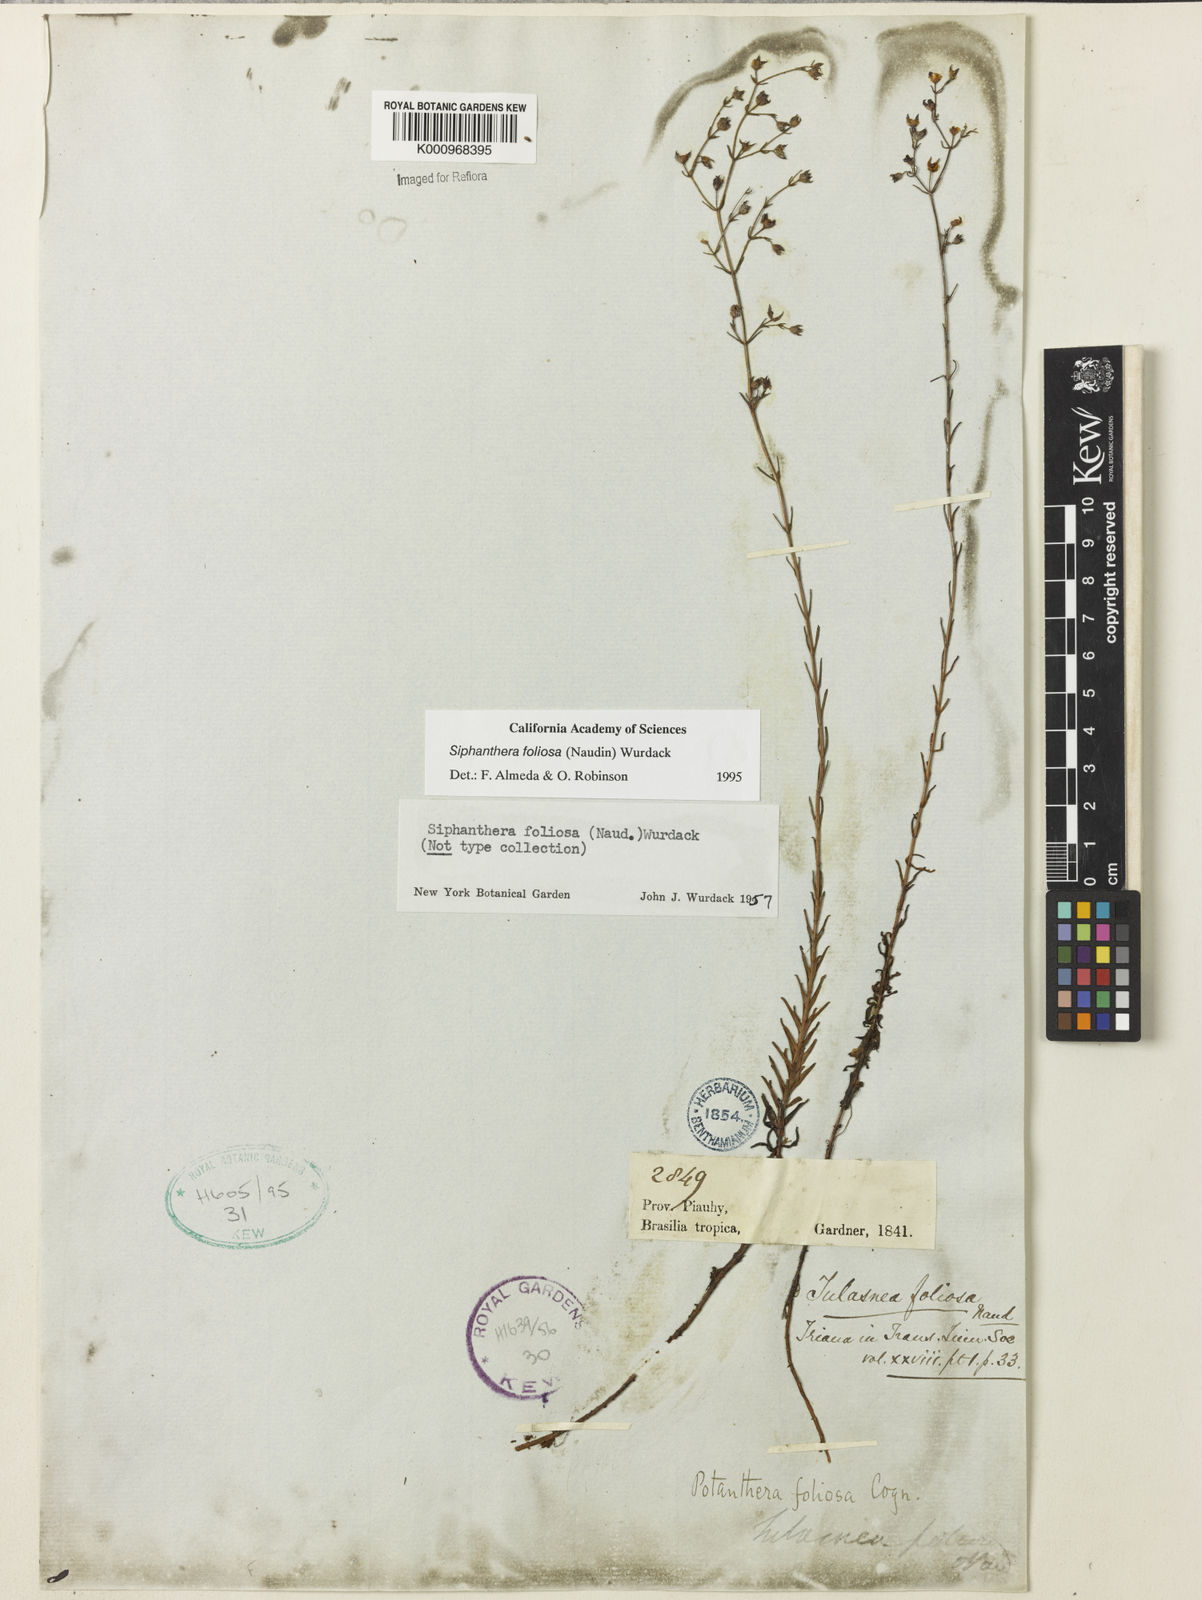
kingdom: Plantae
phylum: Tracheophyta
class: Magnoliopsida
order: Myrtales
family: Melastomataceae
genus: Siphanthera
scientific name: Siphanthera foliosa
